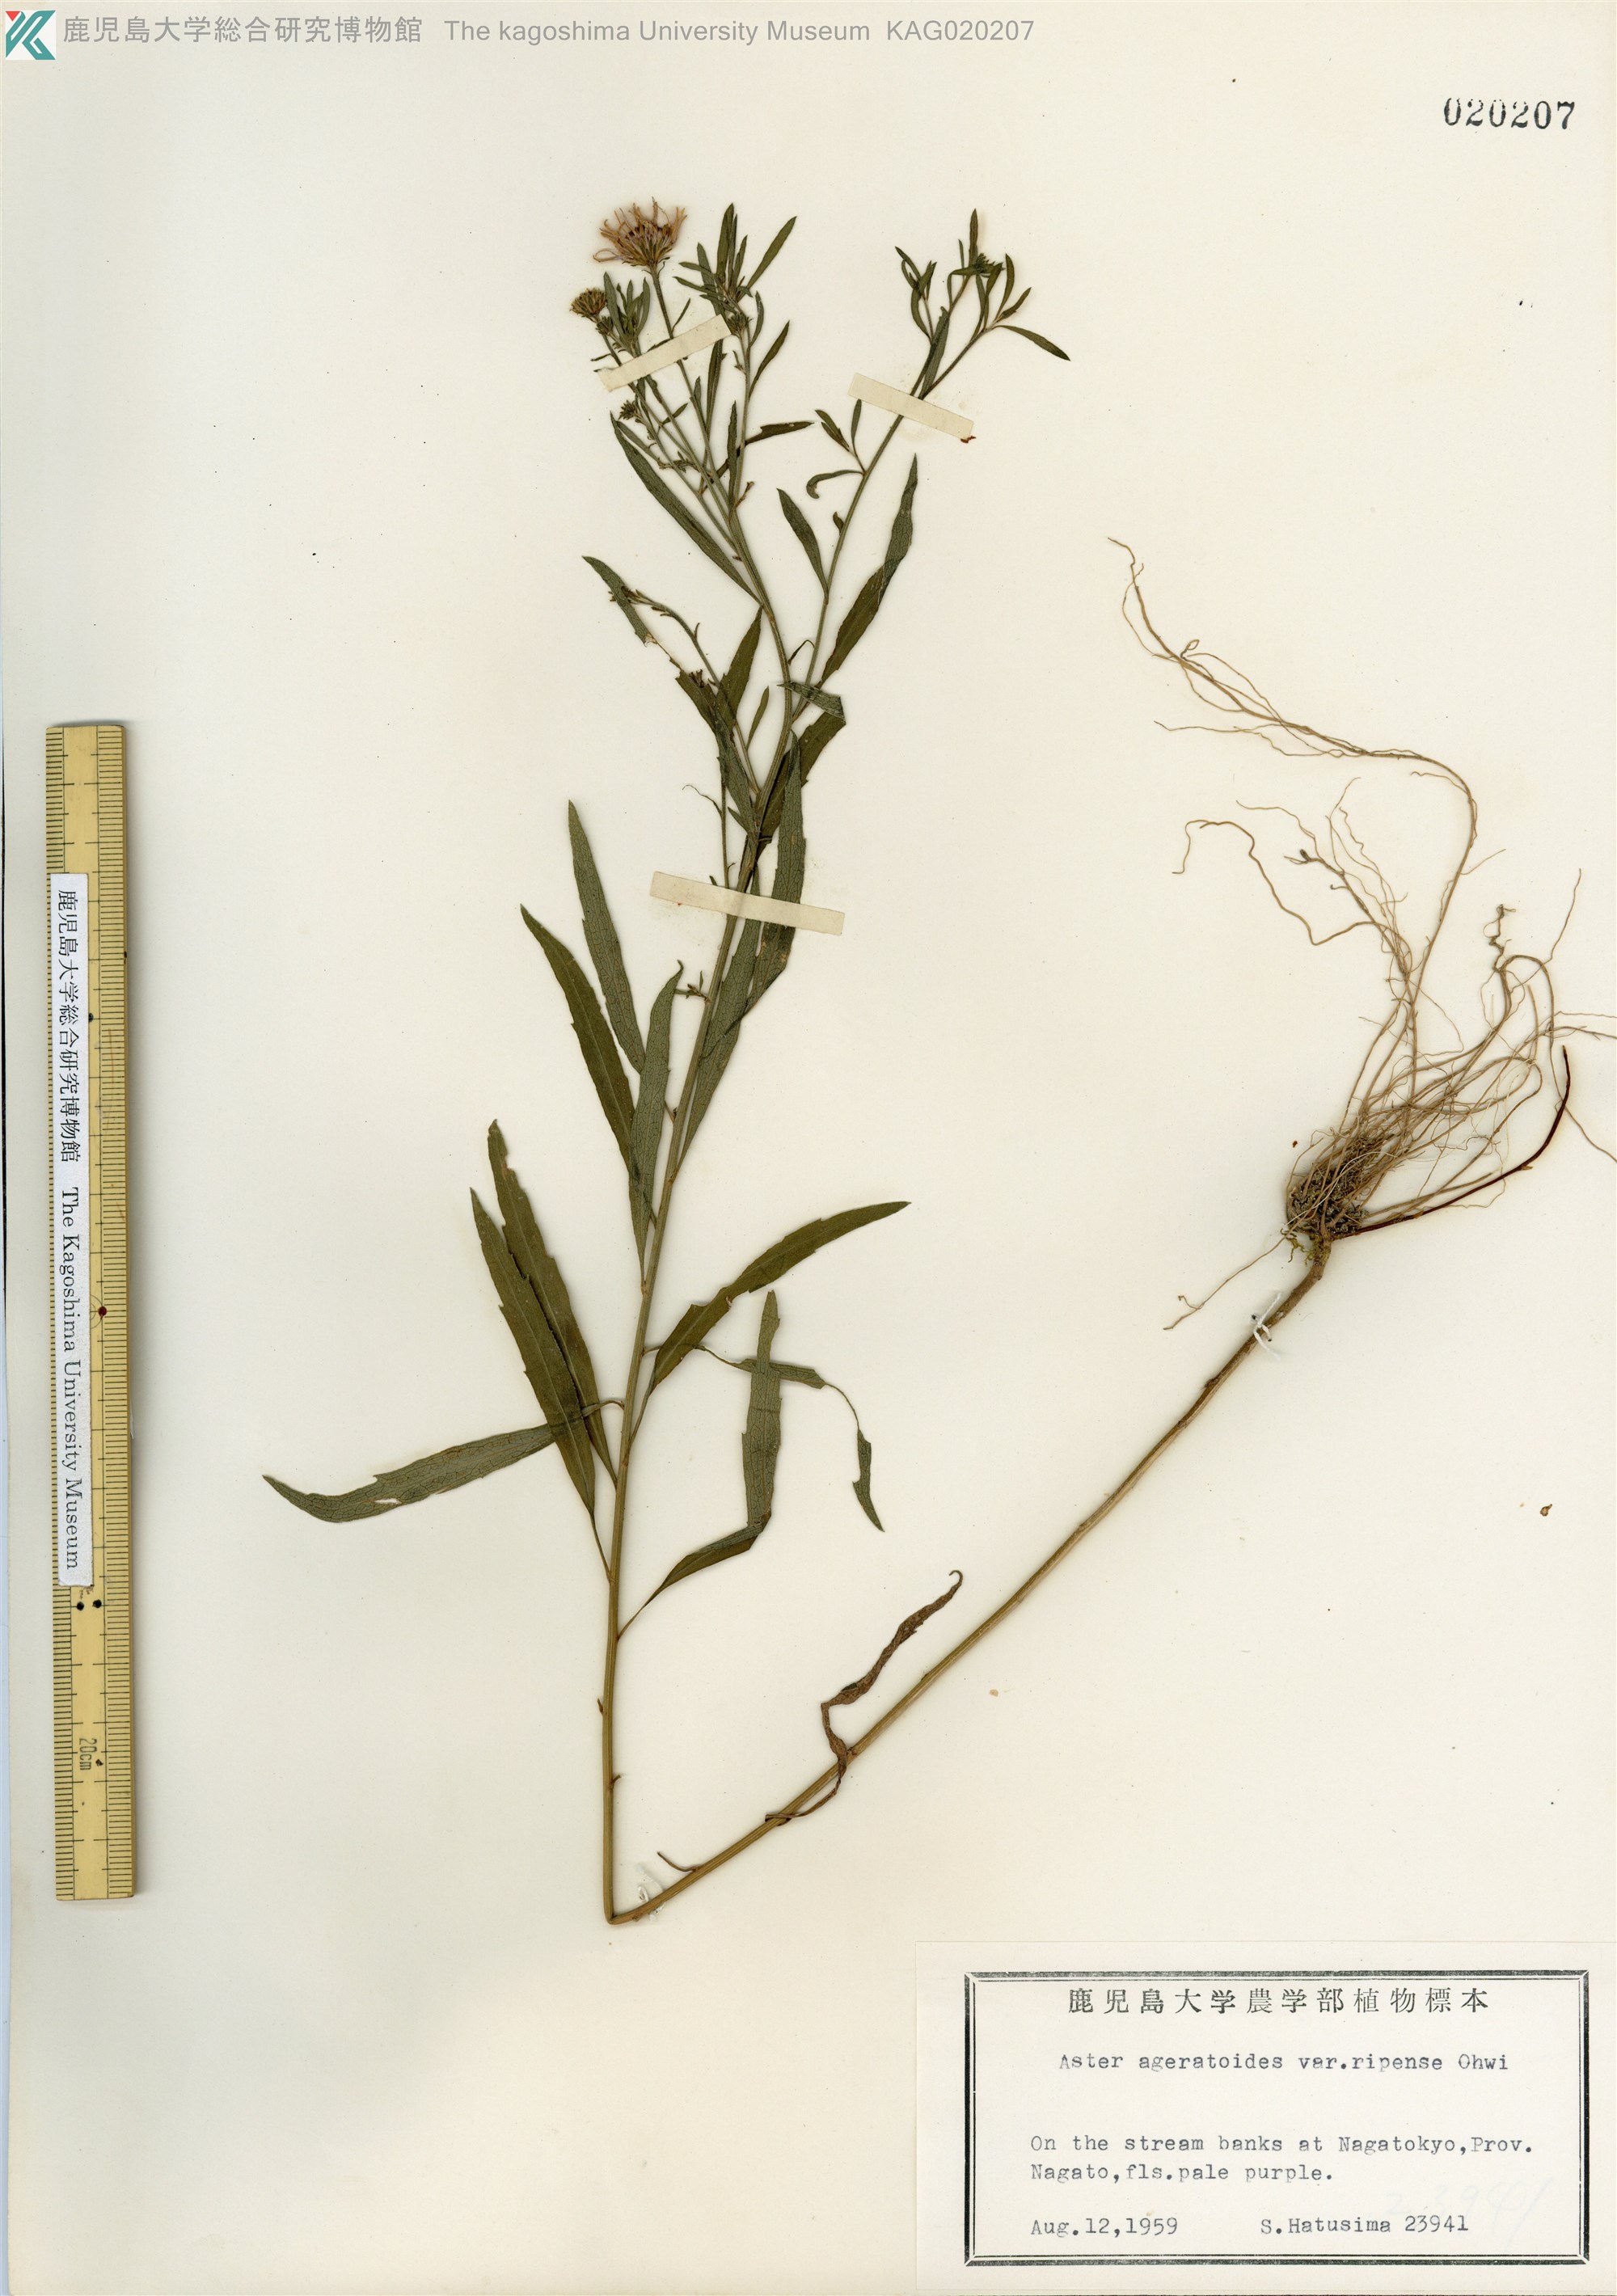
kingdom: Plantae
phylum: Tracheophyta
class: Magnoliopsida
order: Asterales
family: Asteraceae
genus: Aster
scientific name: Aster microcephalus
